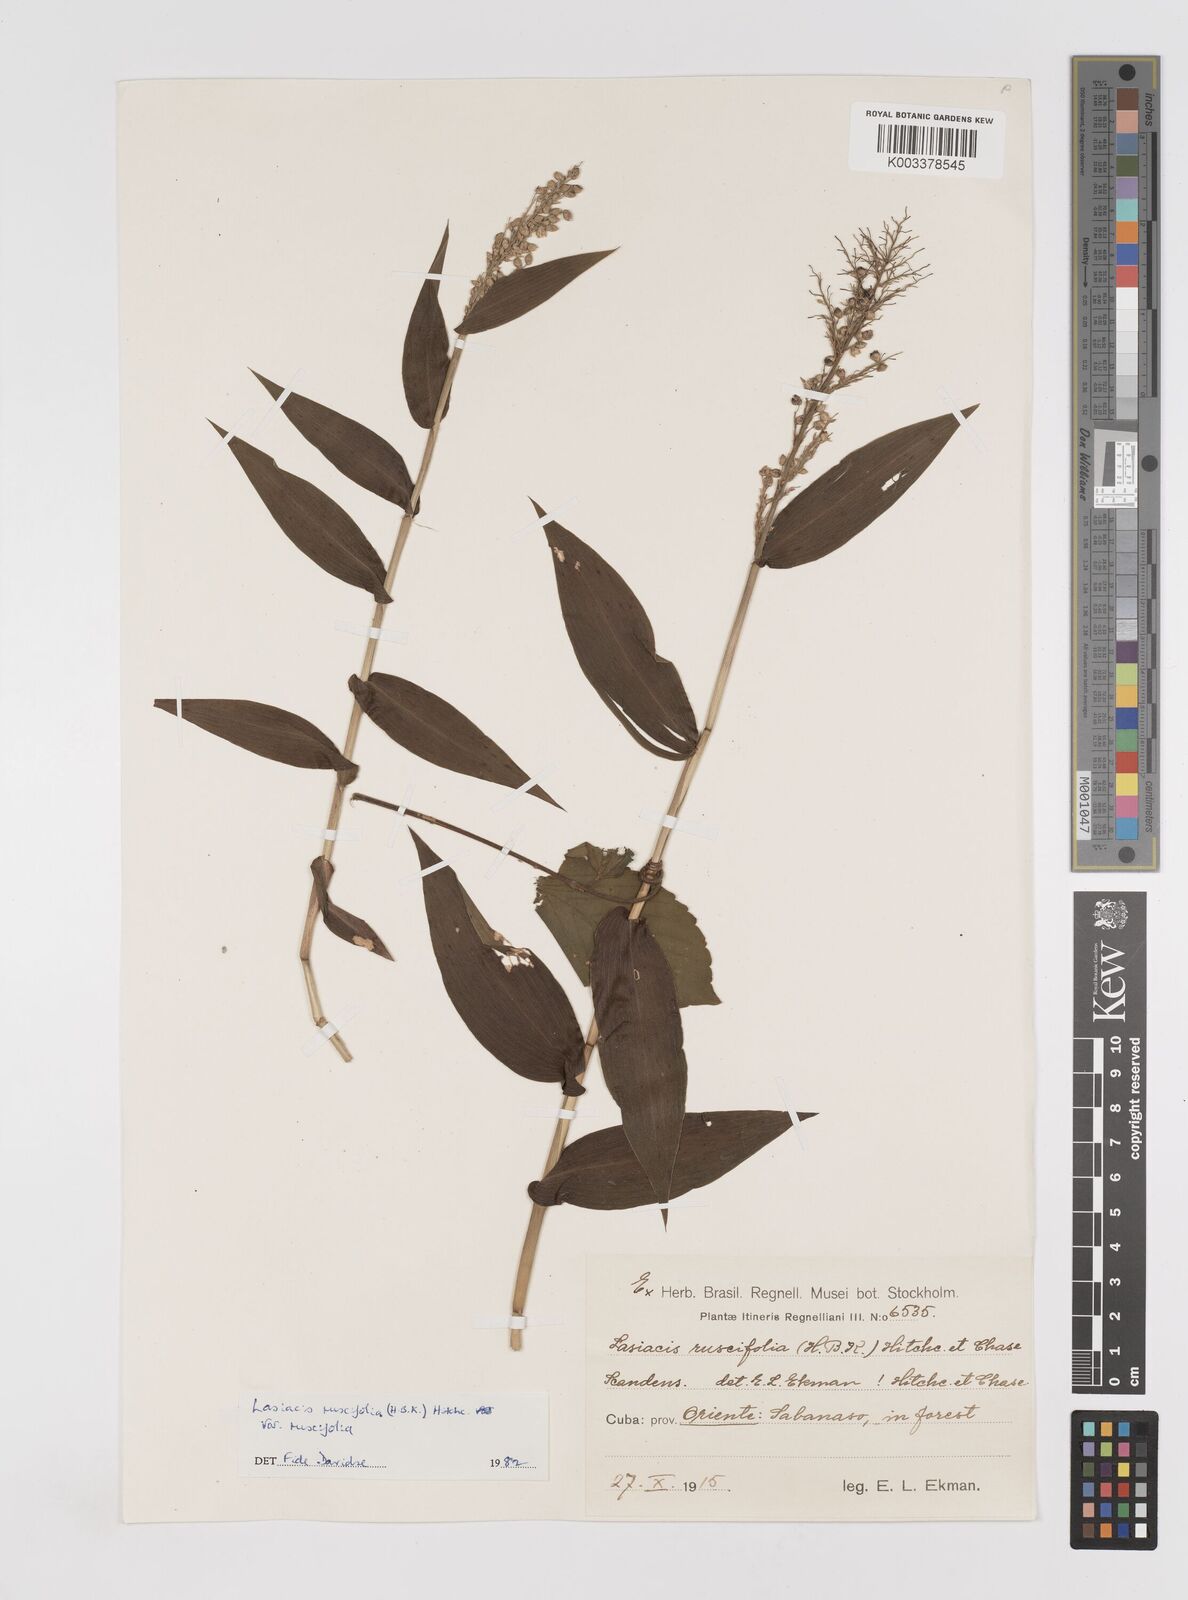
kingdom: Plantae
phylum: Tracheophyta
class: Liliopsida
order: Poales
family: Poaceae
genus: Lasiacis
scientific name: Lasiacis ruscifolia
